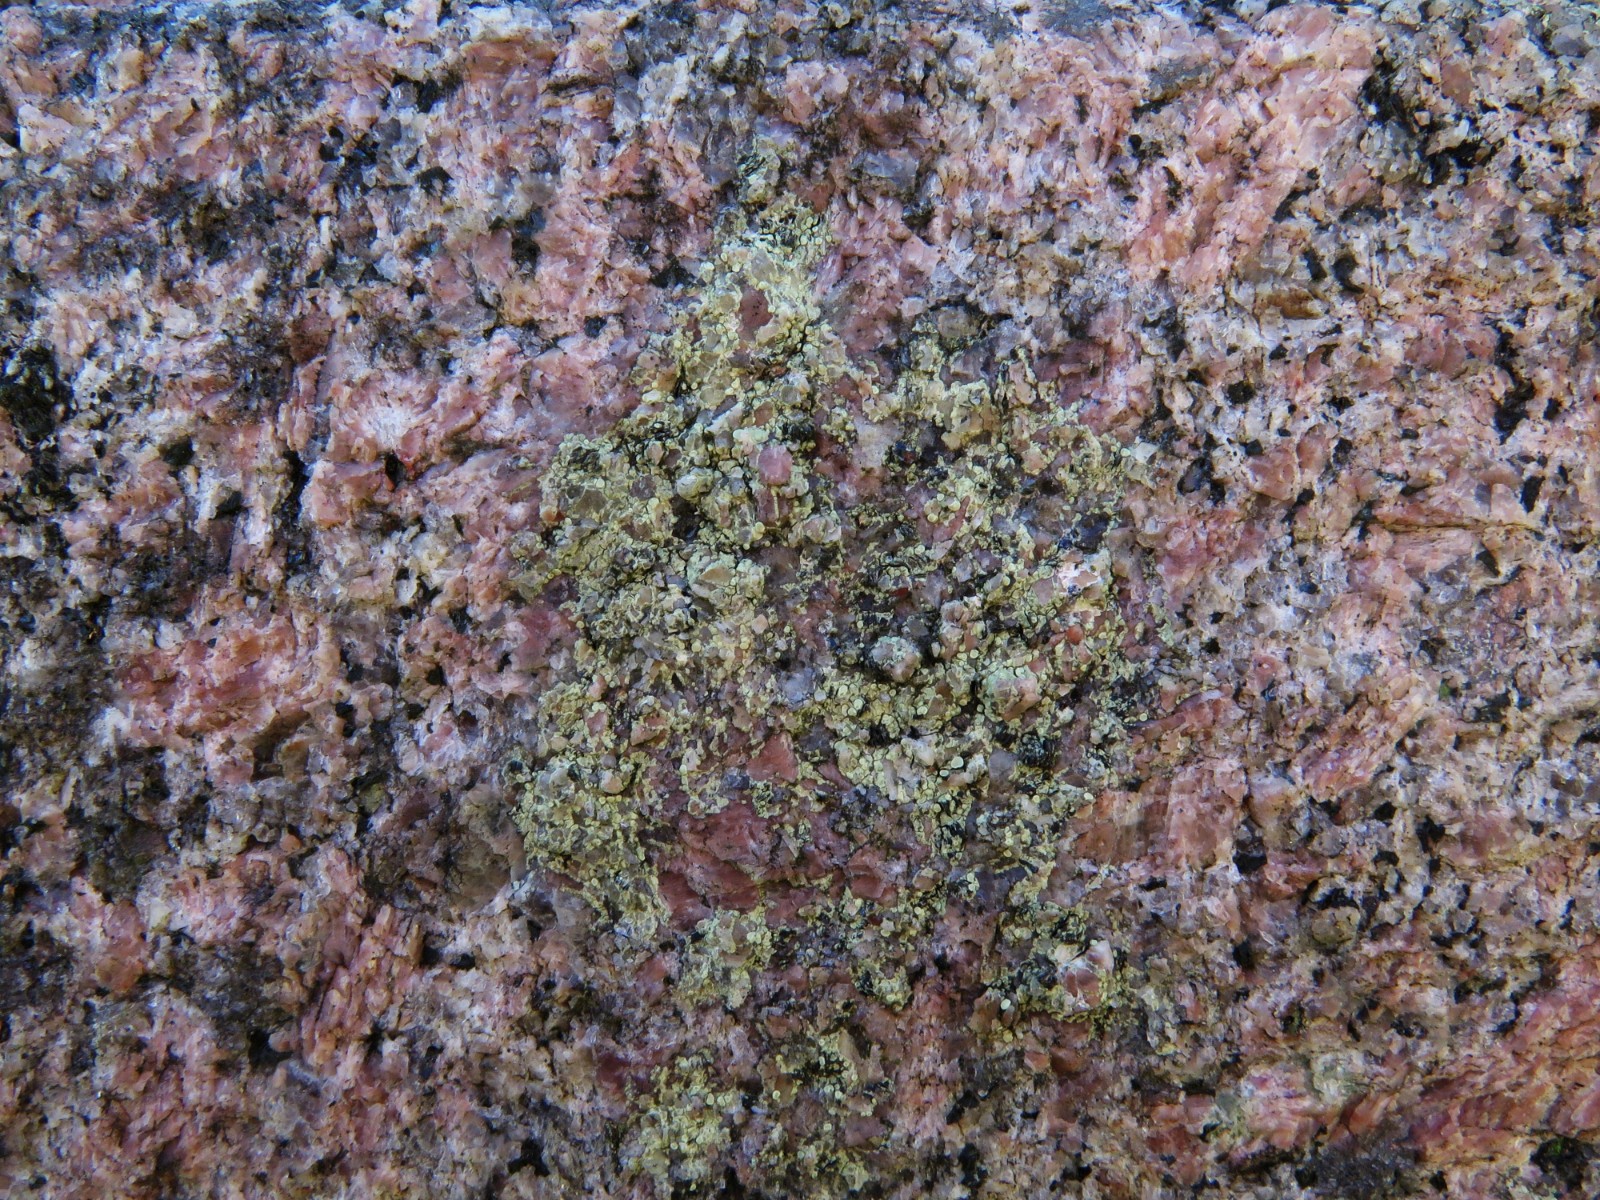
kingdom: Fungi
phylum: Ascomycota
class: Lecanoromycetes
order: Lecanorales
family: Lecanoraceae
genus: Lecanora
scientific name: Lecanora polytropa
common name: bleggrøn kantskivelav
